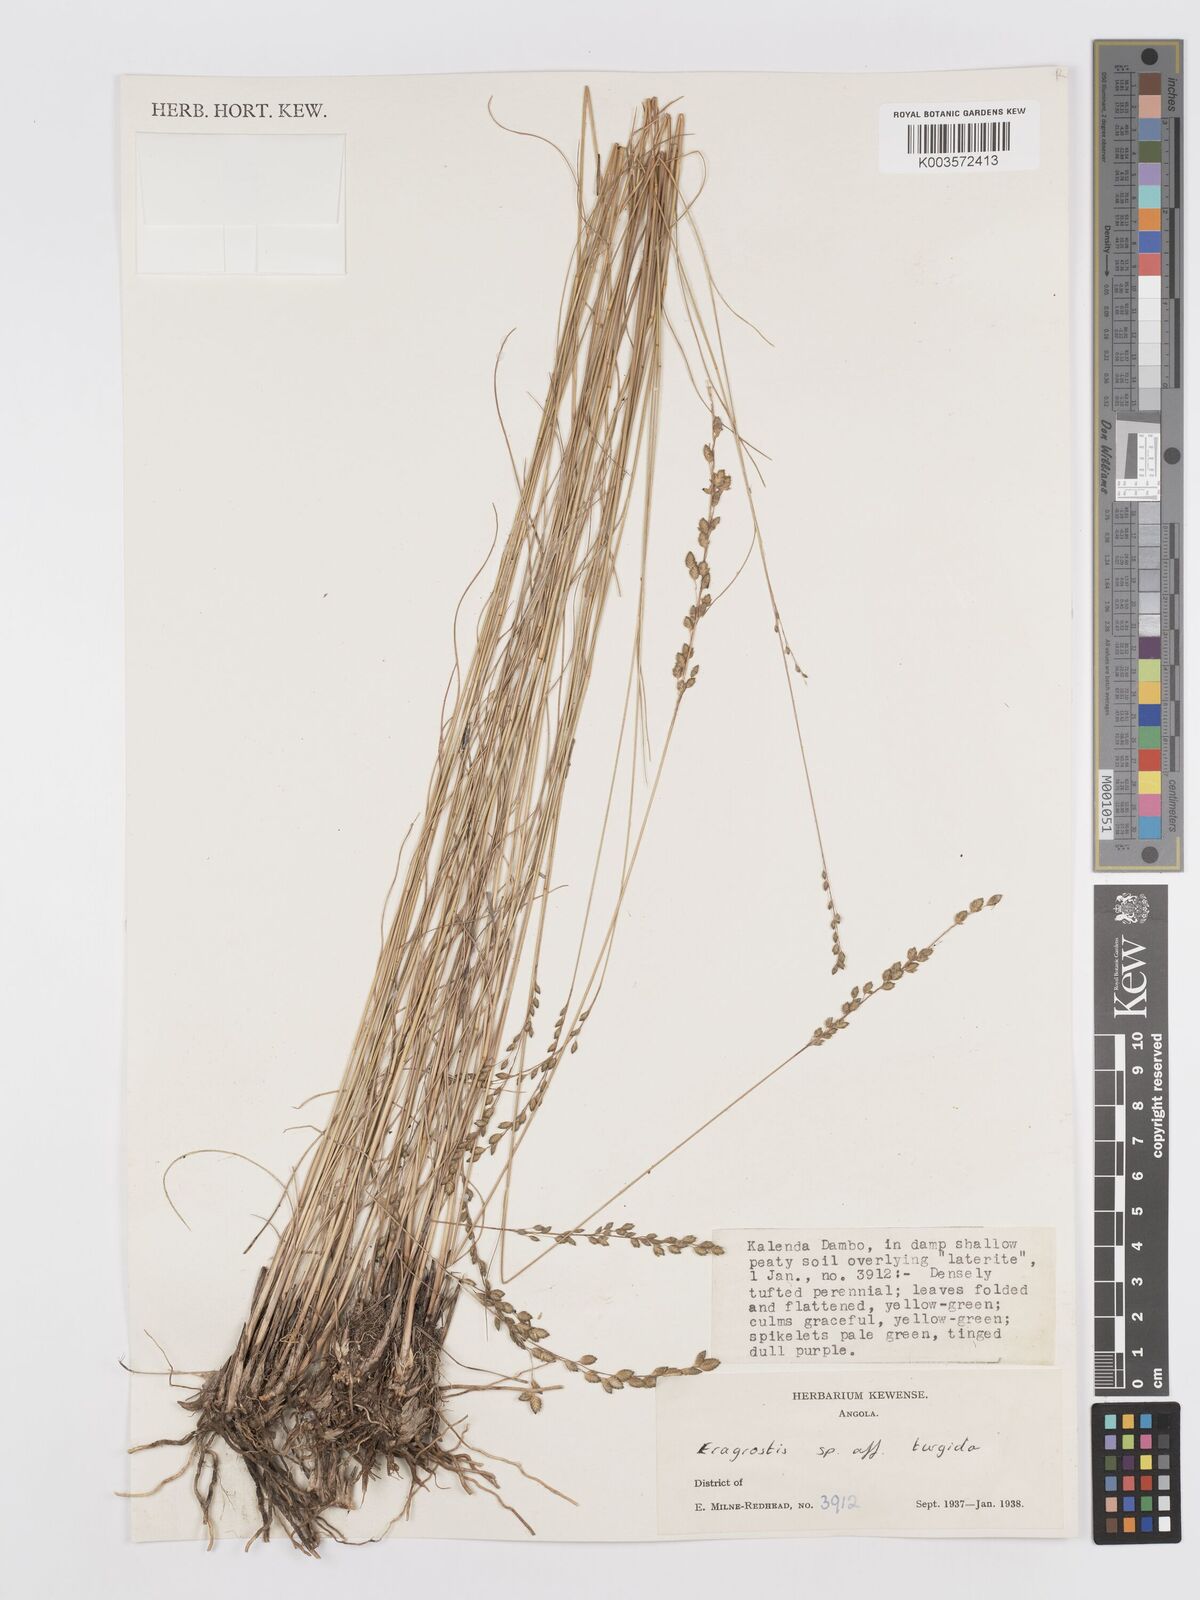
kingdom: Plantae
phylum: Tracheophyta
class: Liliopsida
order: Poales
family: Poaceae
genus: Eragrostis
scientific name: Eragrostis
